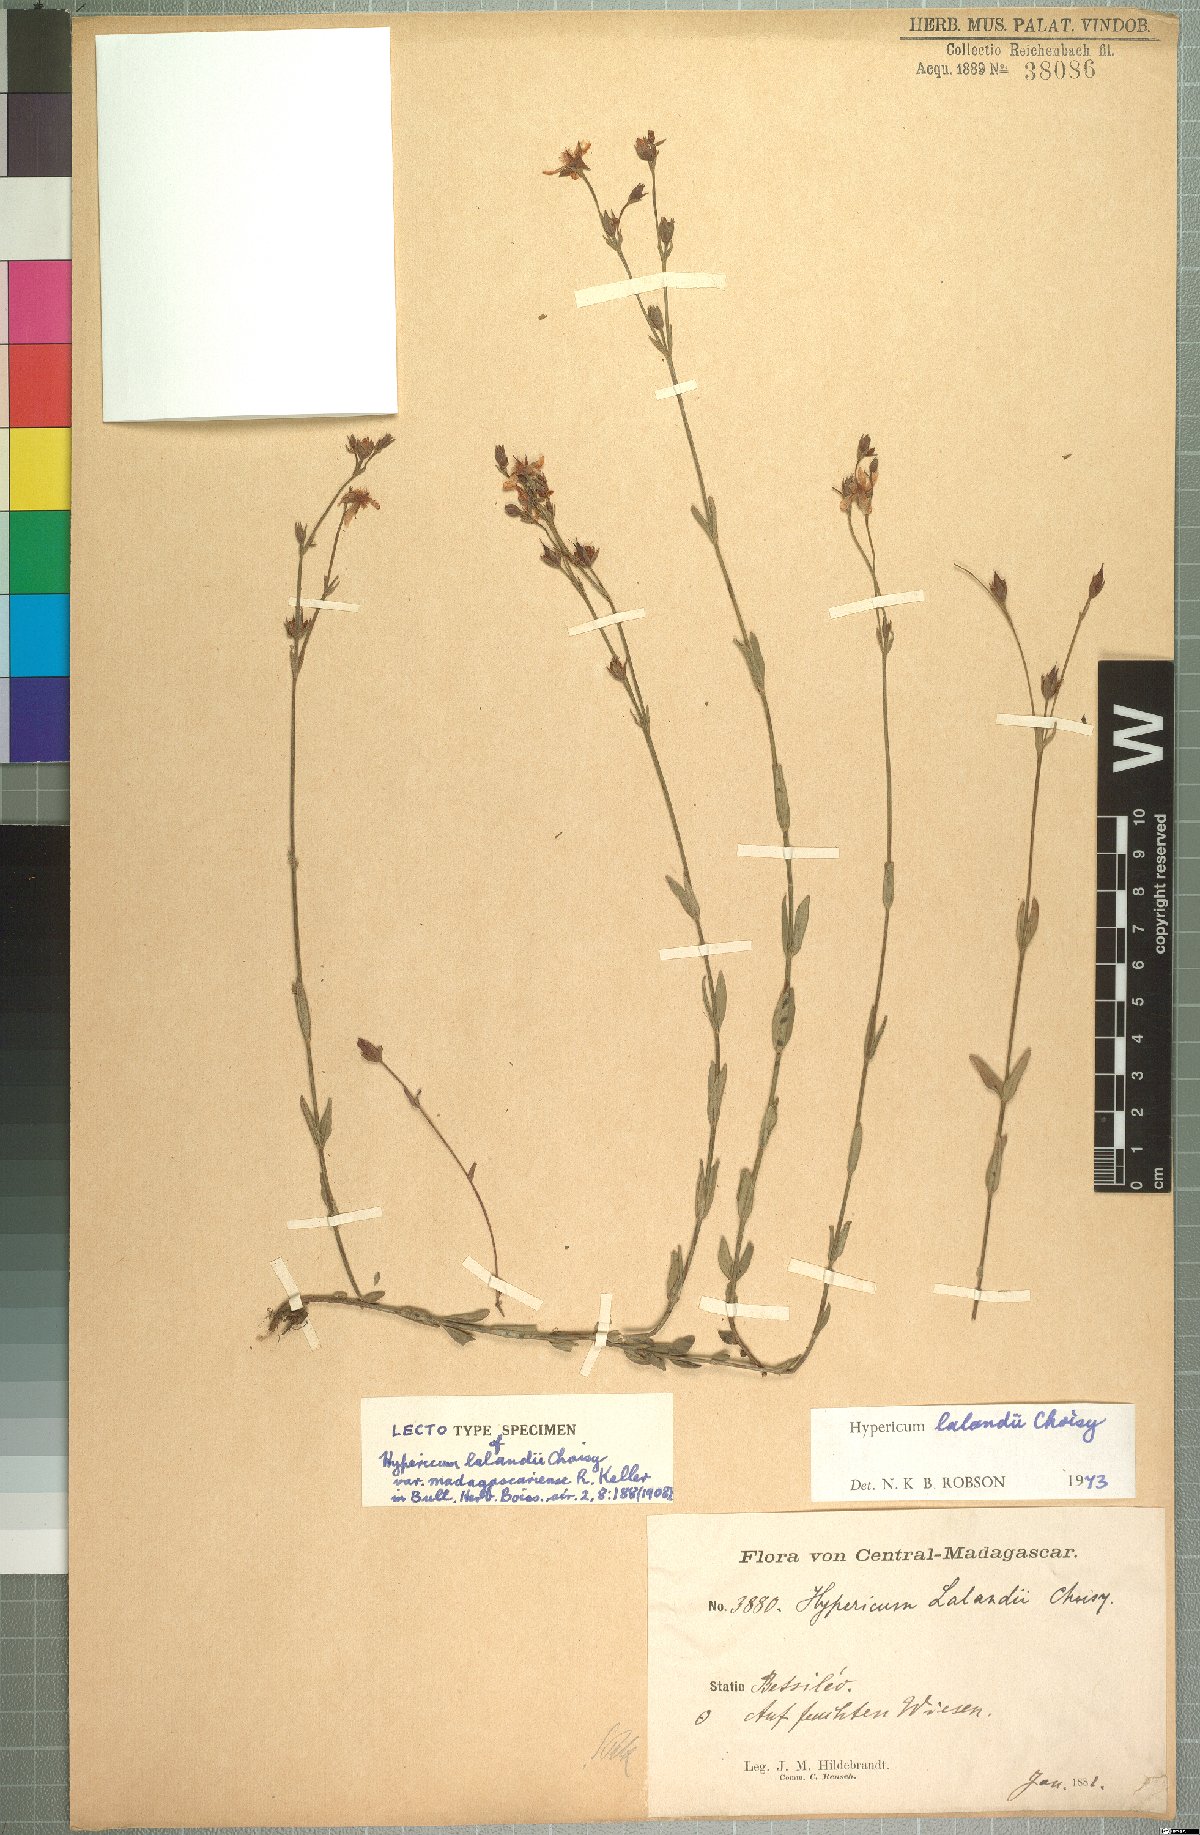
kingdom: Plantae
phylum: Tracheophyta
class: Magnoliopsida
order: Malpighiales
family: Hypericaceae
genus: Hypericum
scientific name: Hypericum lalandii
